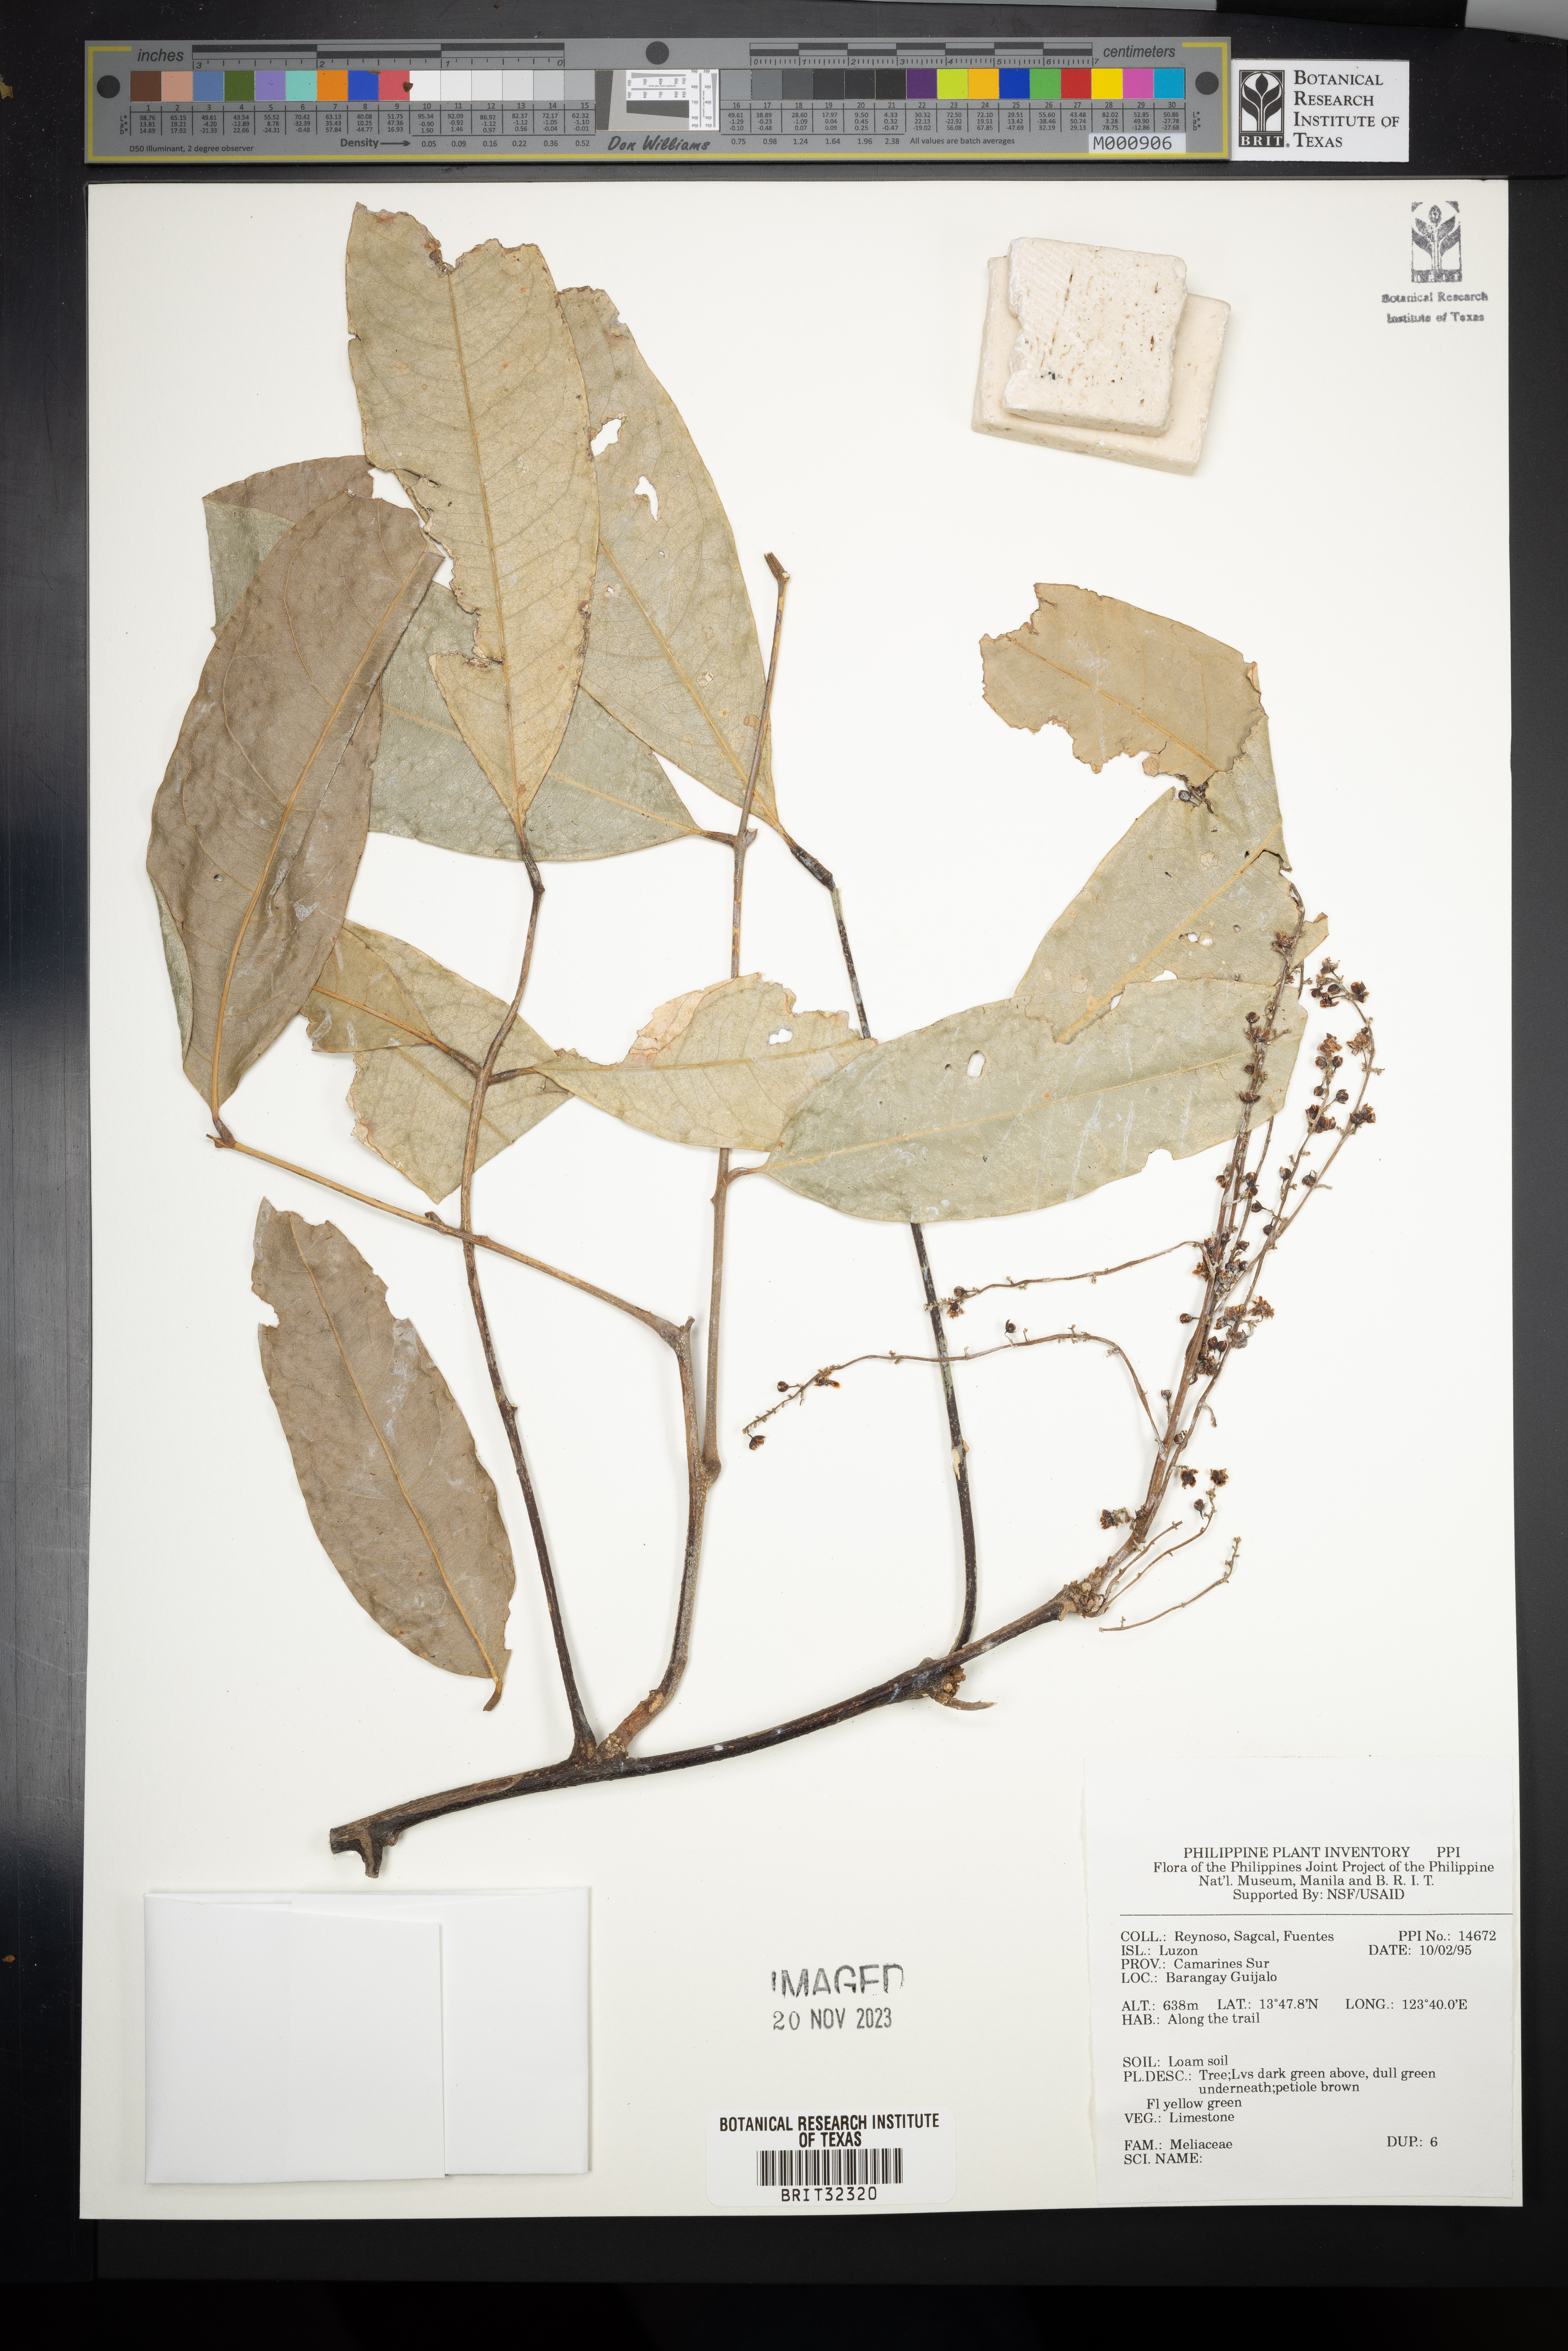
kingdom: Plantae
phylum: Tracheophyta
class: Magnoliopsida
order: Sapindales
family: Meliaceae
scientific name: Meliaceae
